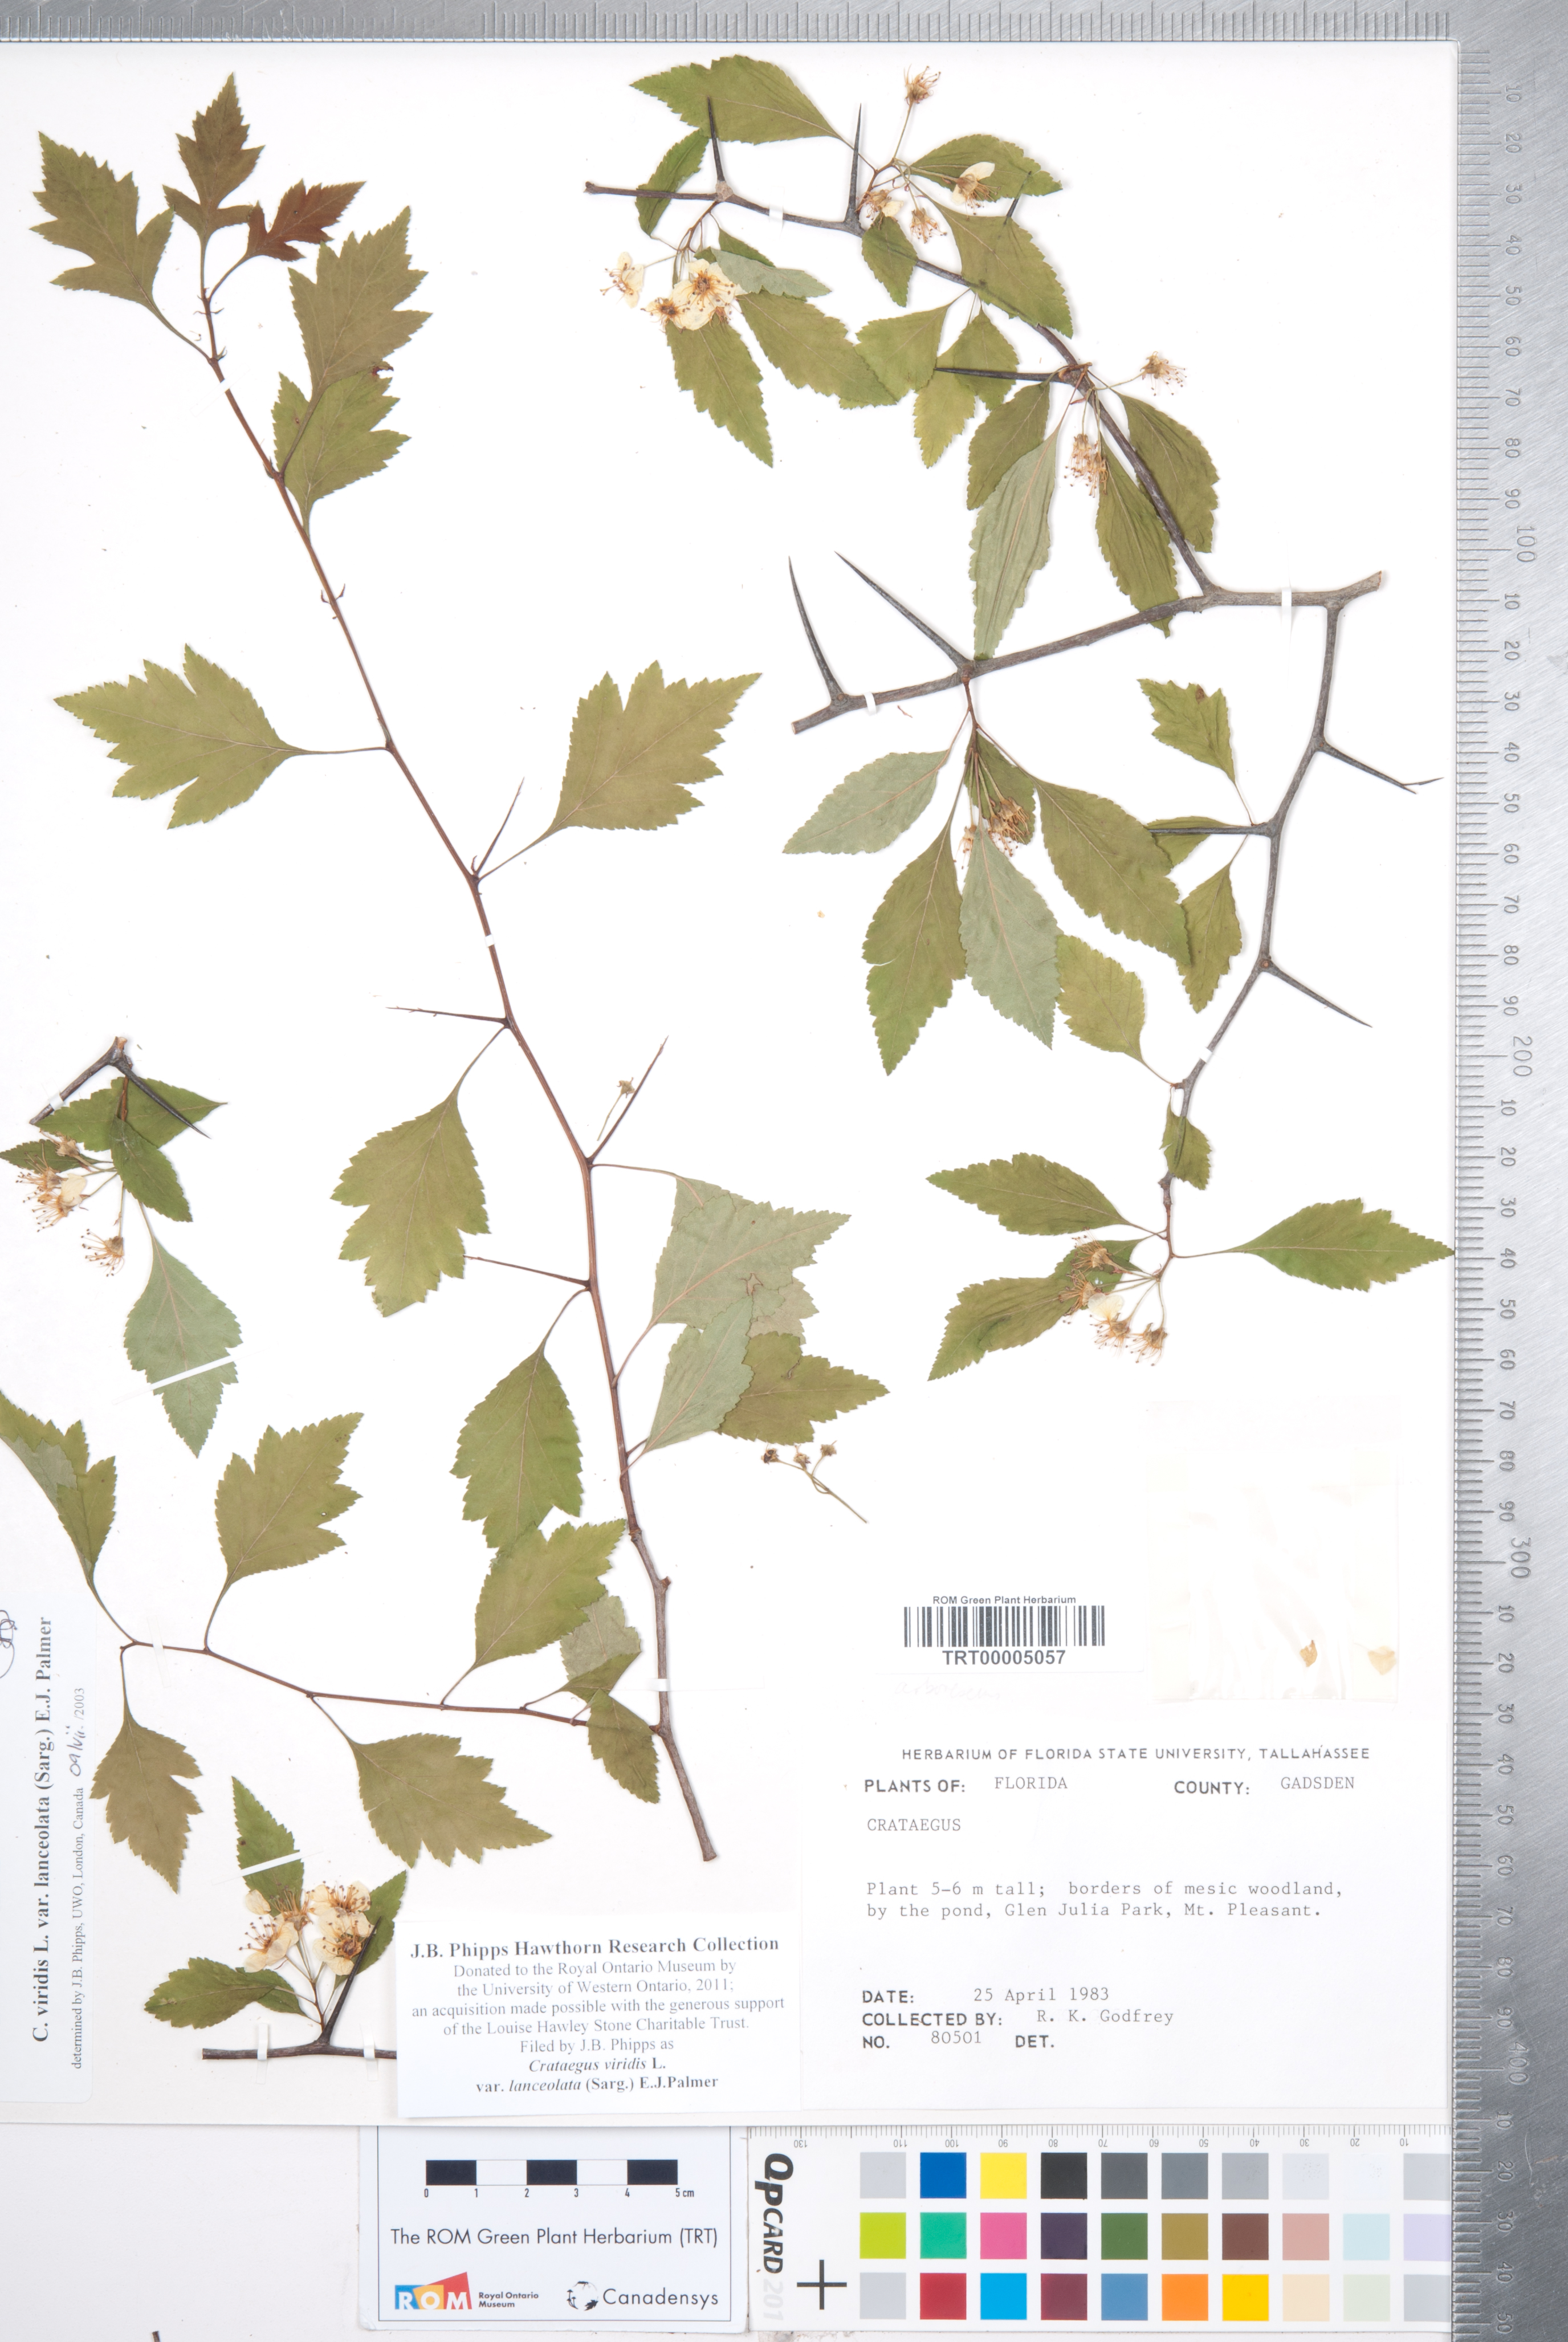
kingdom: Plantae
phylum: Tracheophyta
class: Magnoliopsida
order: Rosales
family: Rosaceae
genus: Crataegus
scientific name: Crataegus viridis
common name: Southernthorn
